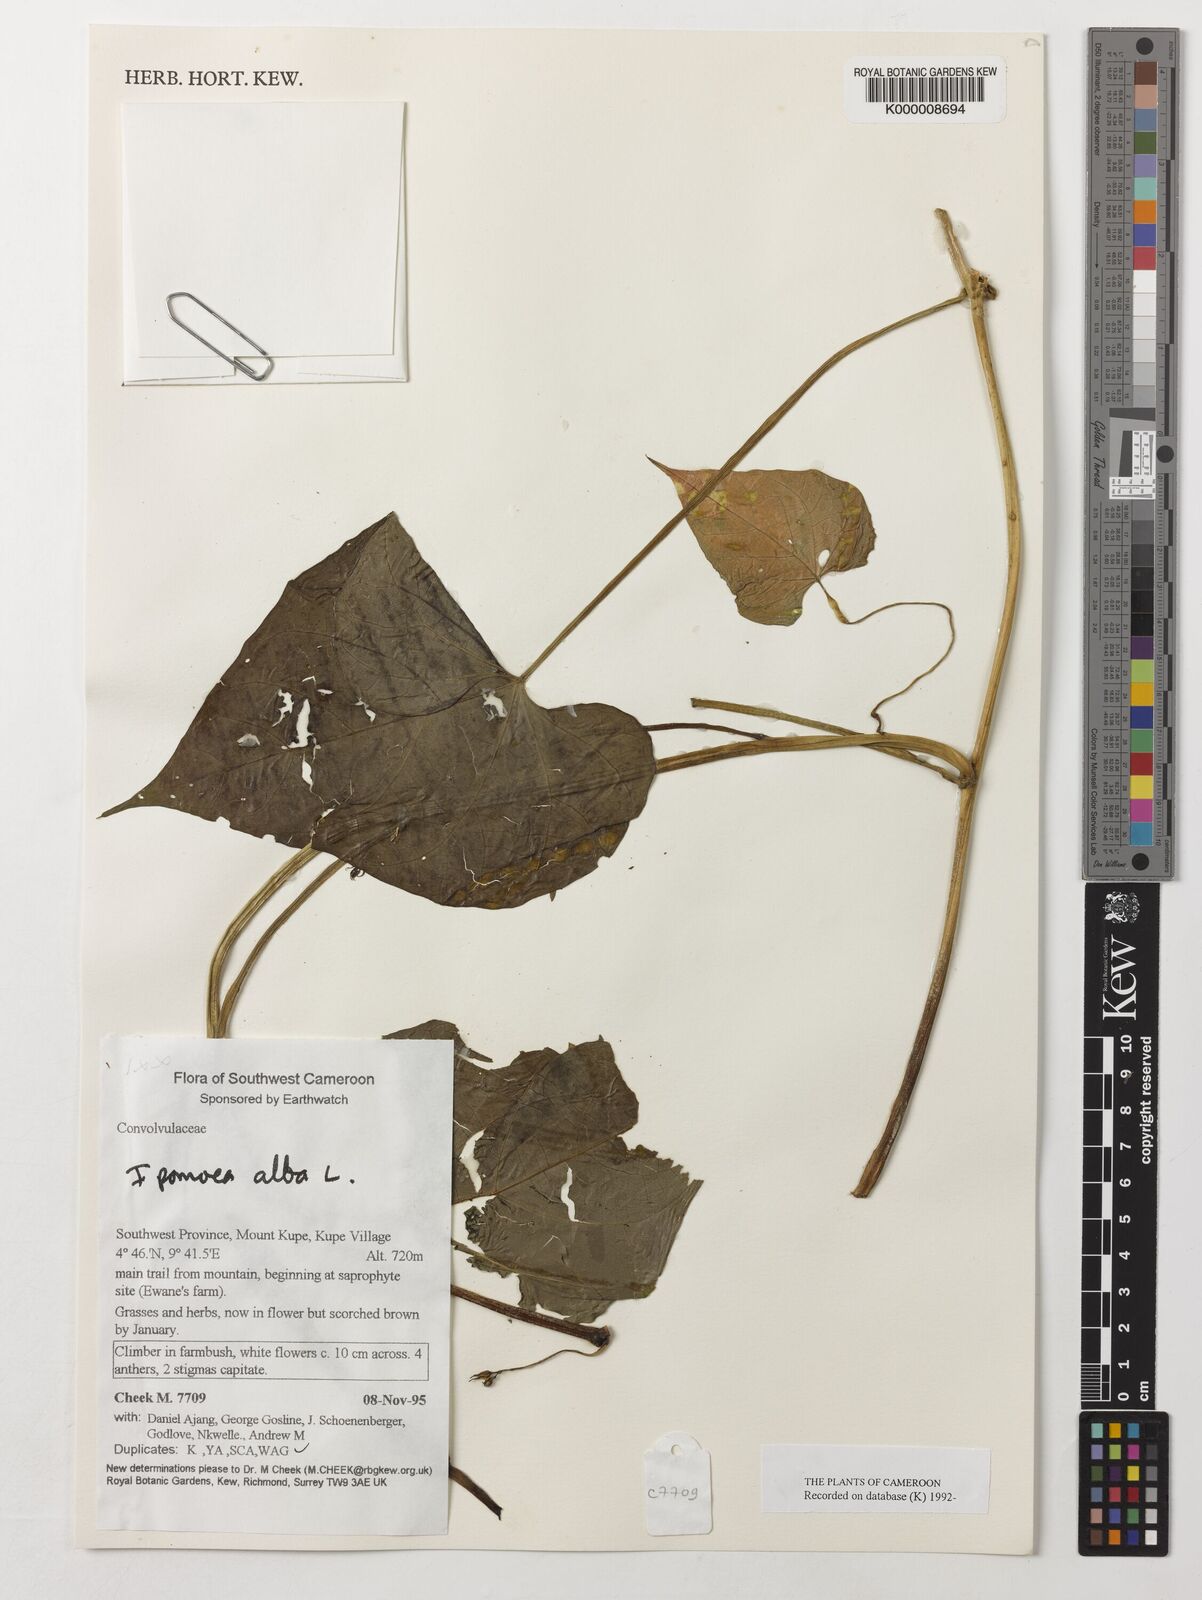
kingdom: Plantae
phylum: Tracheophyta
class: Magnoliopsida
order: Solanales
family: Convolvulaceae
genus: Ipomoea
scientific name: Ipomoea alba
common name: Moonflower
